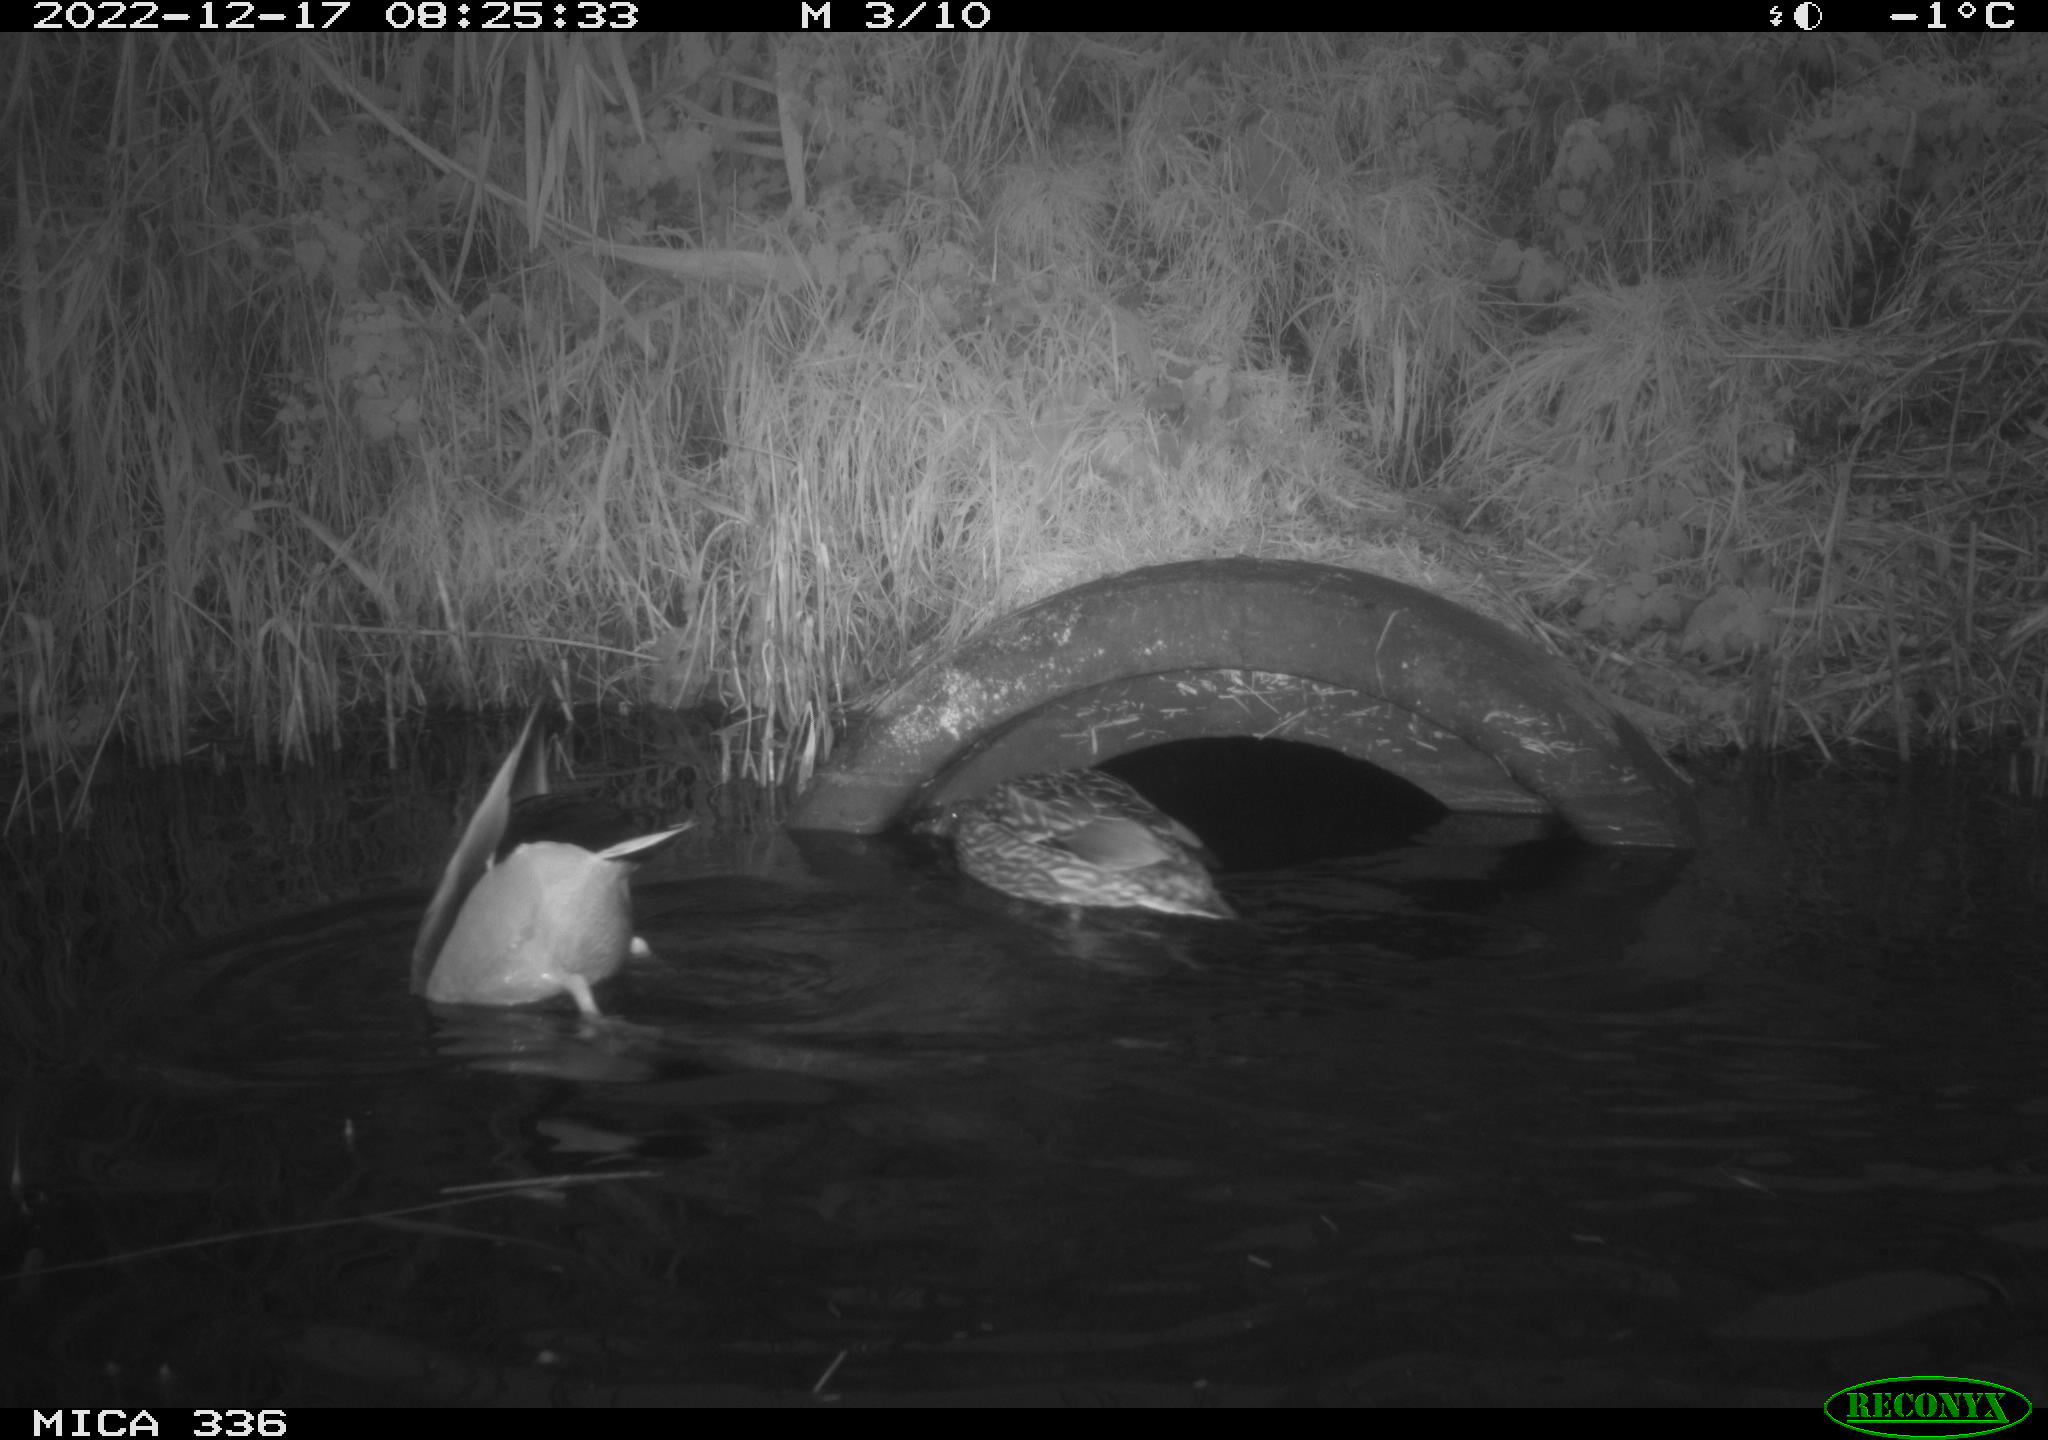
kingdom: Animalia
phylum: Chordata
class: Aves
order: Anseriformes
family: Anatidae
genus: Anas
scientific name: Anas
